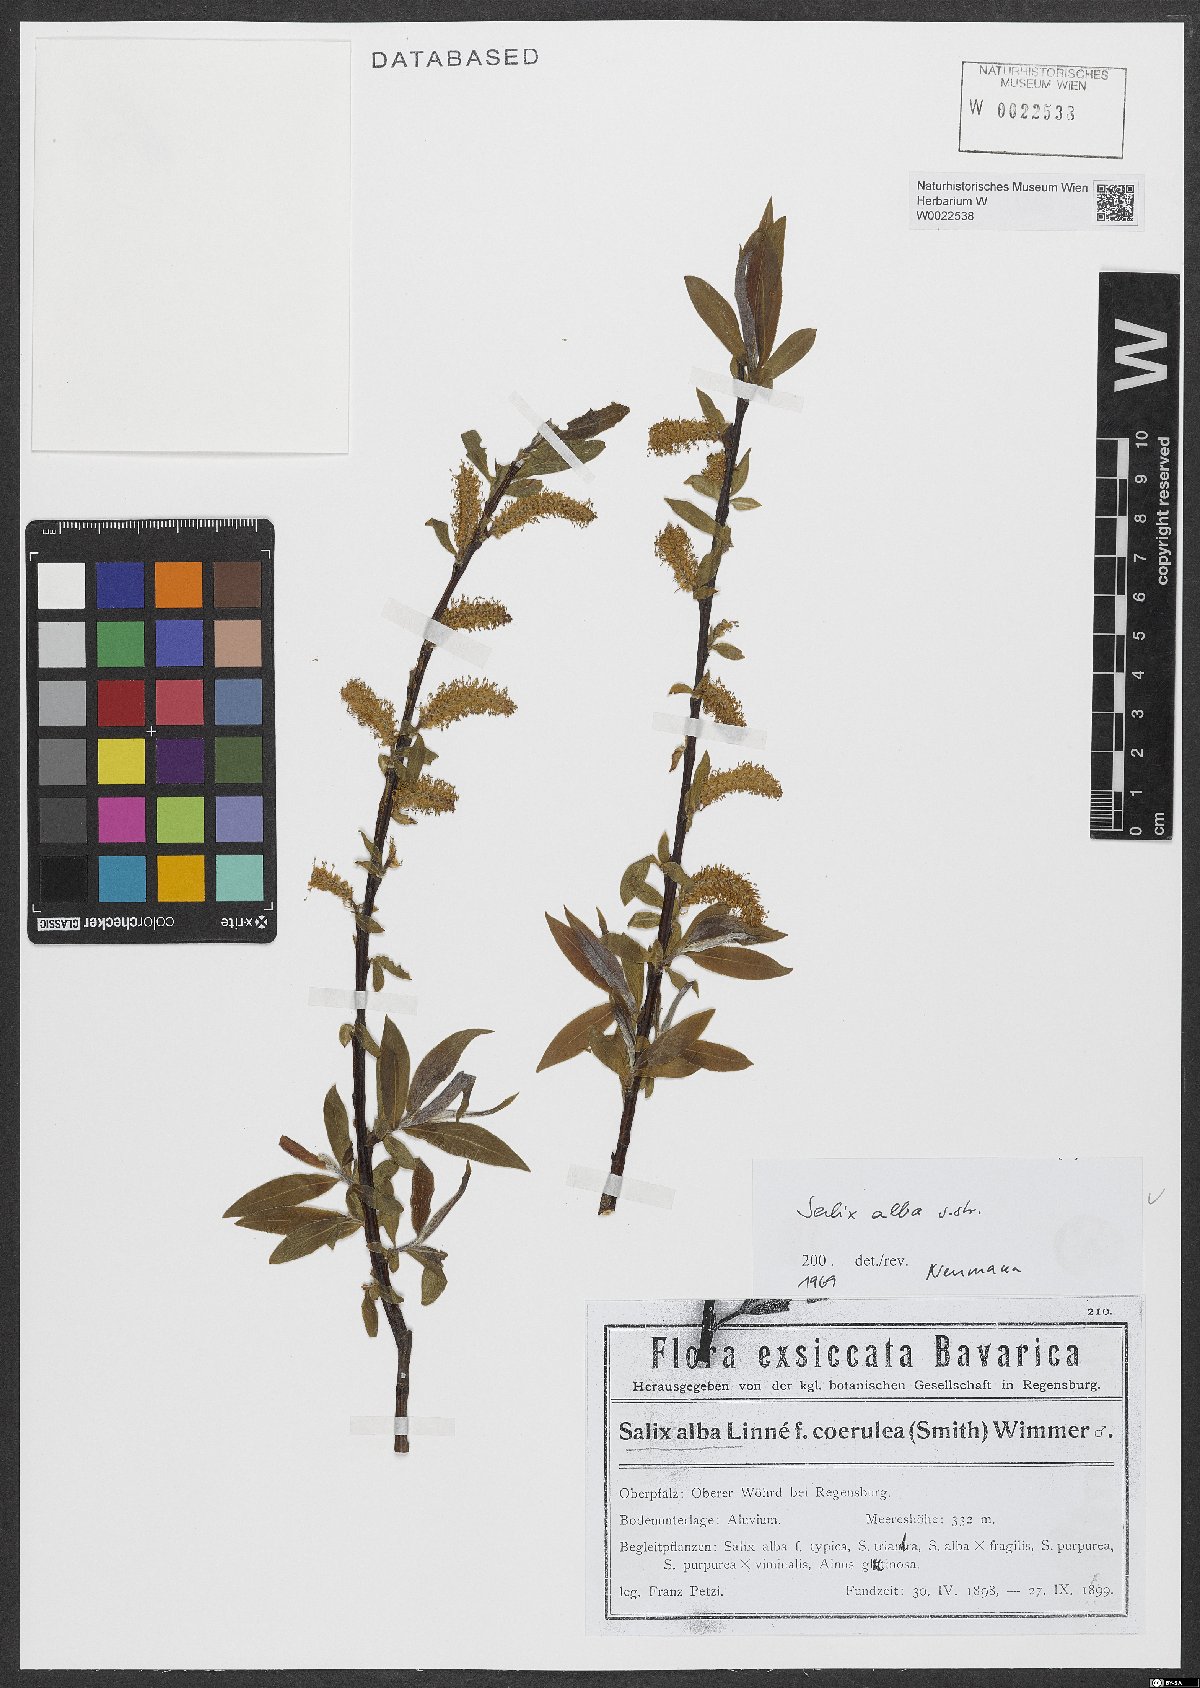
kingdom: Plantae
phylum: Tracheophyta
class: Magnoliopsida
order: Malpighiales
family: Salicaceae
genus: Salix
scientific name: Salix alba
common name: White willow
